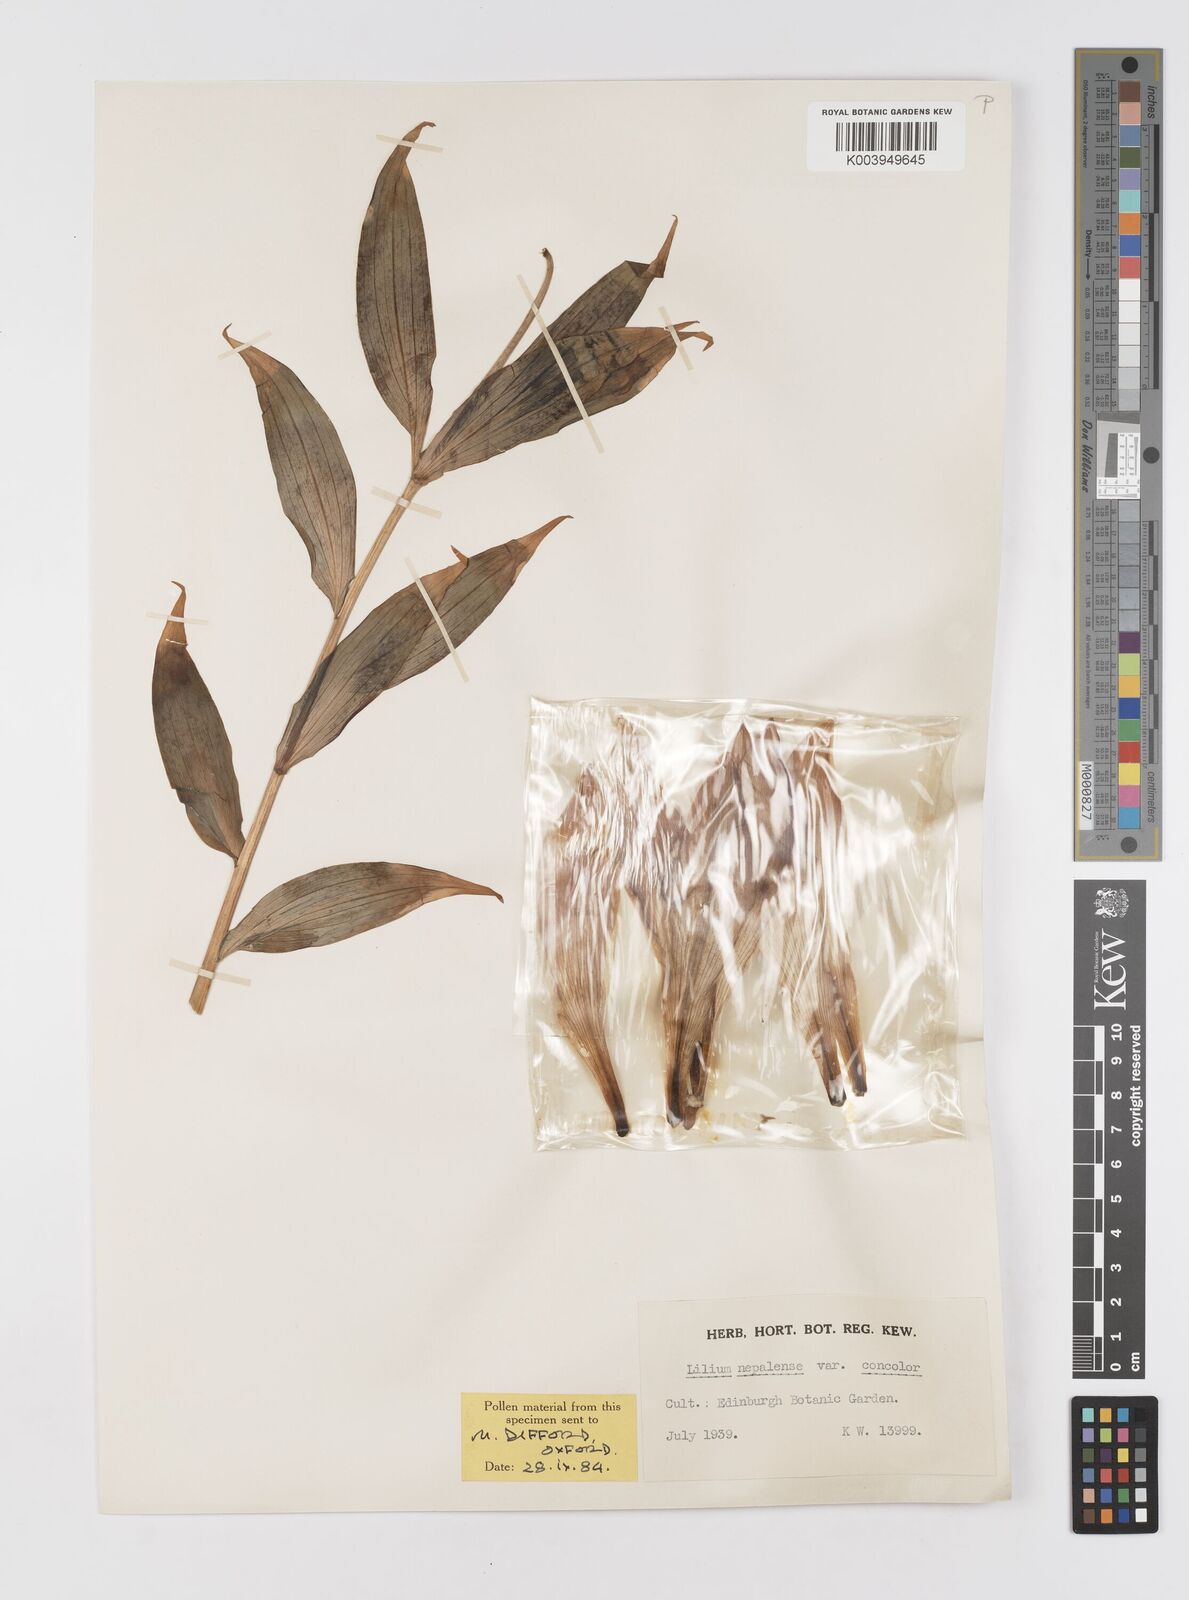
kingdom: Plantae
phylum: Tracheophyta
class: Liliopsida
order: Liliales
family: Liliaceae
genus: Lilium
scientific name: Lilium nepalense
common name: Nepal lily
